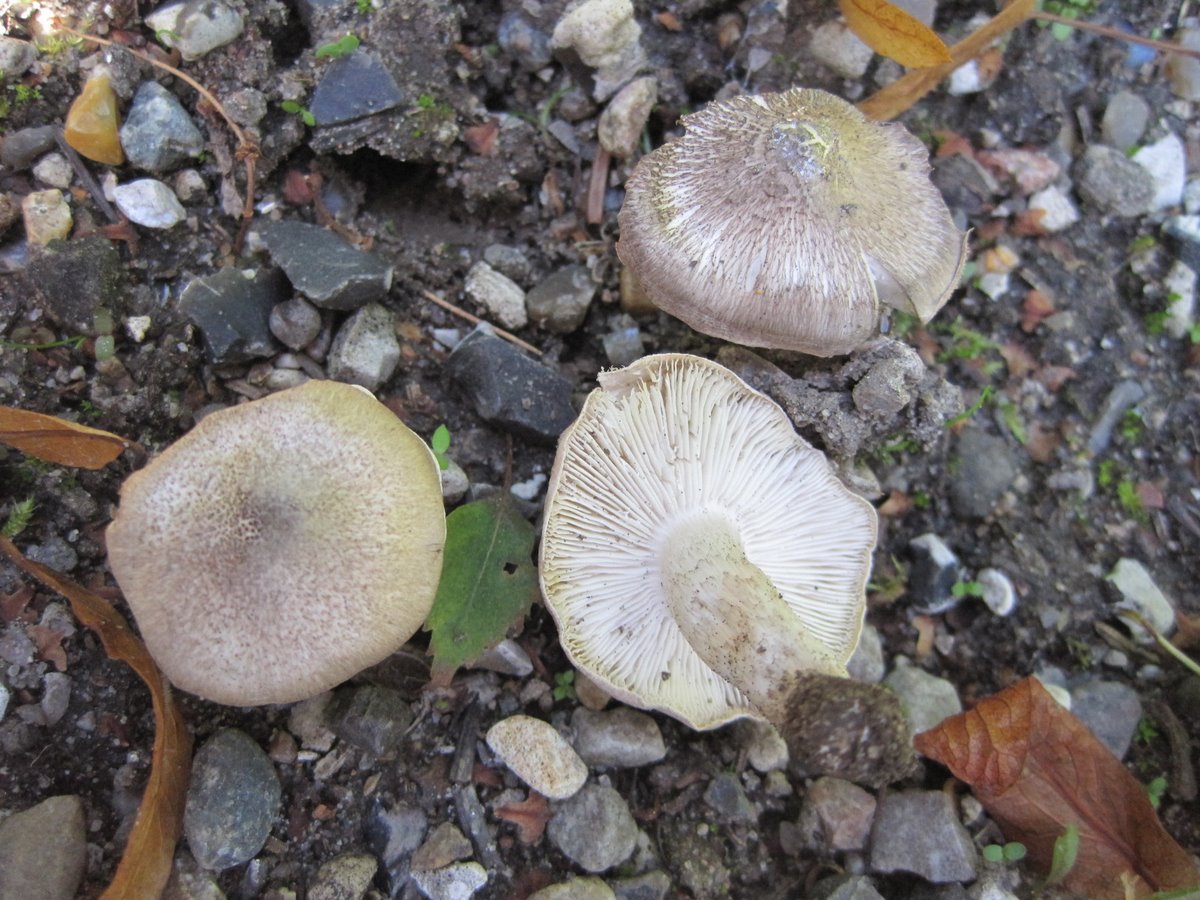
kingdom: Fungi
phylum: Basidiomycota
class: Agaricomycetes
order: Agaricales
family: Tricholomataceae
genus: Tricholoma
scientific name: Tricholoma scalpturatum
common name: gulplettet ridderhat
